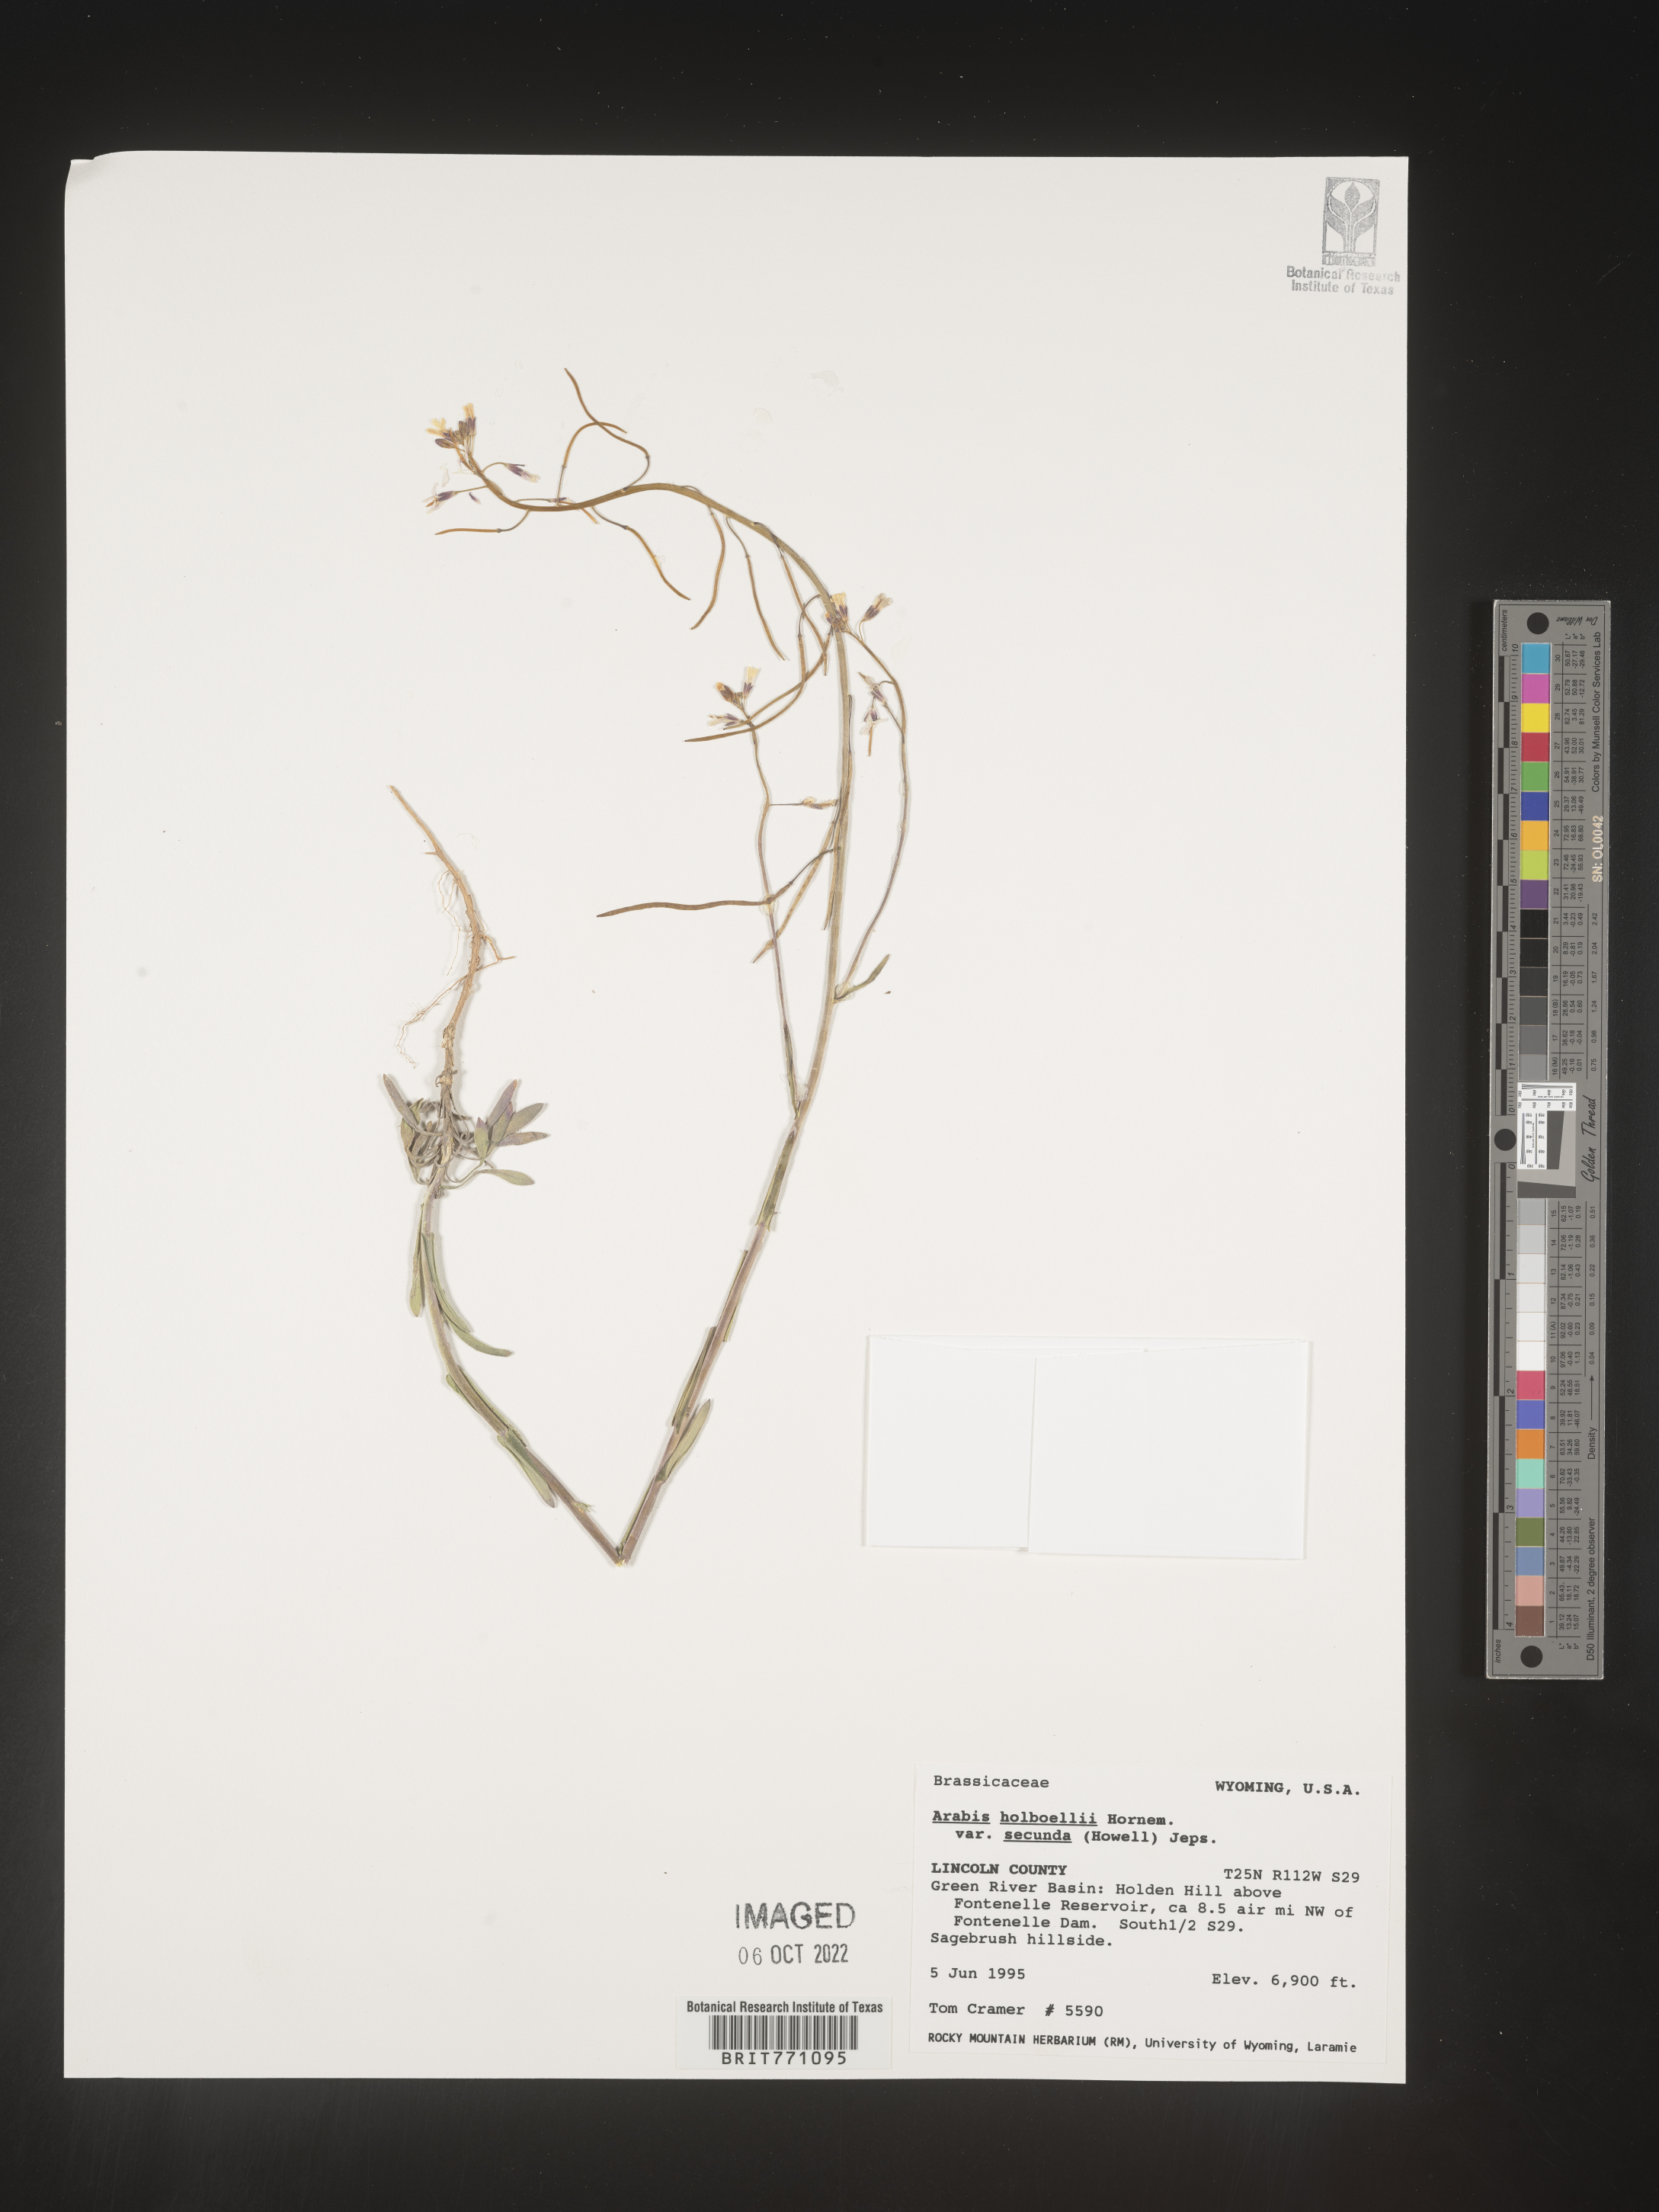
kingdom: Plantae
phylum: Tracheophyta
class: Magnoliopsida
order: Brassicales
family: Brassicaceae
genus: Boechera
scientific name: Boechera holboellii
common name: Holboell's rockcress
